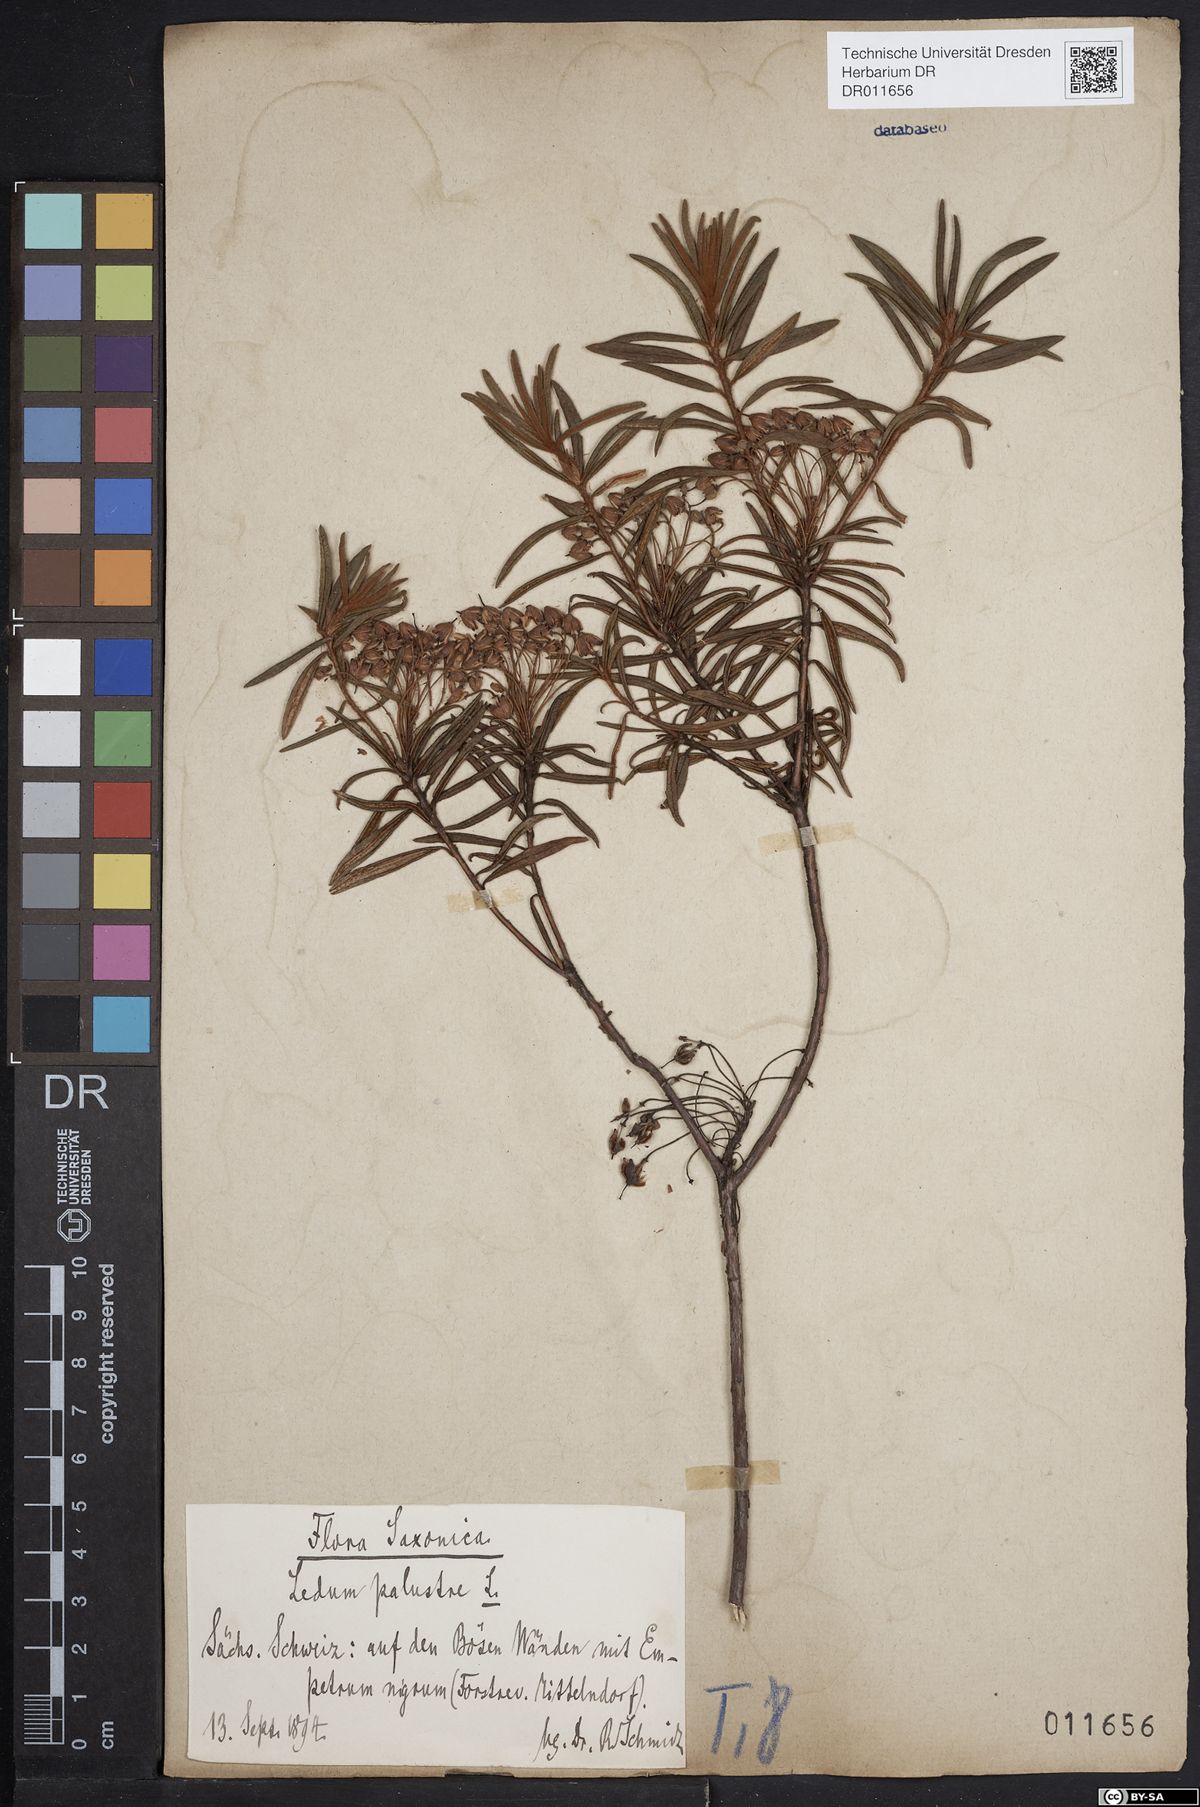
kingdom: Plantae
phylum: Tracheophyta
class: Magnoliopsida
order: Ericales
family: Ericaceae
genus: Rhododendron
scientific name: Rhododendron tomentosum
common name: Marsh labrador tea
